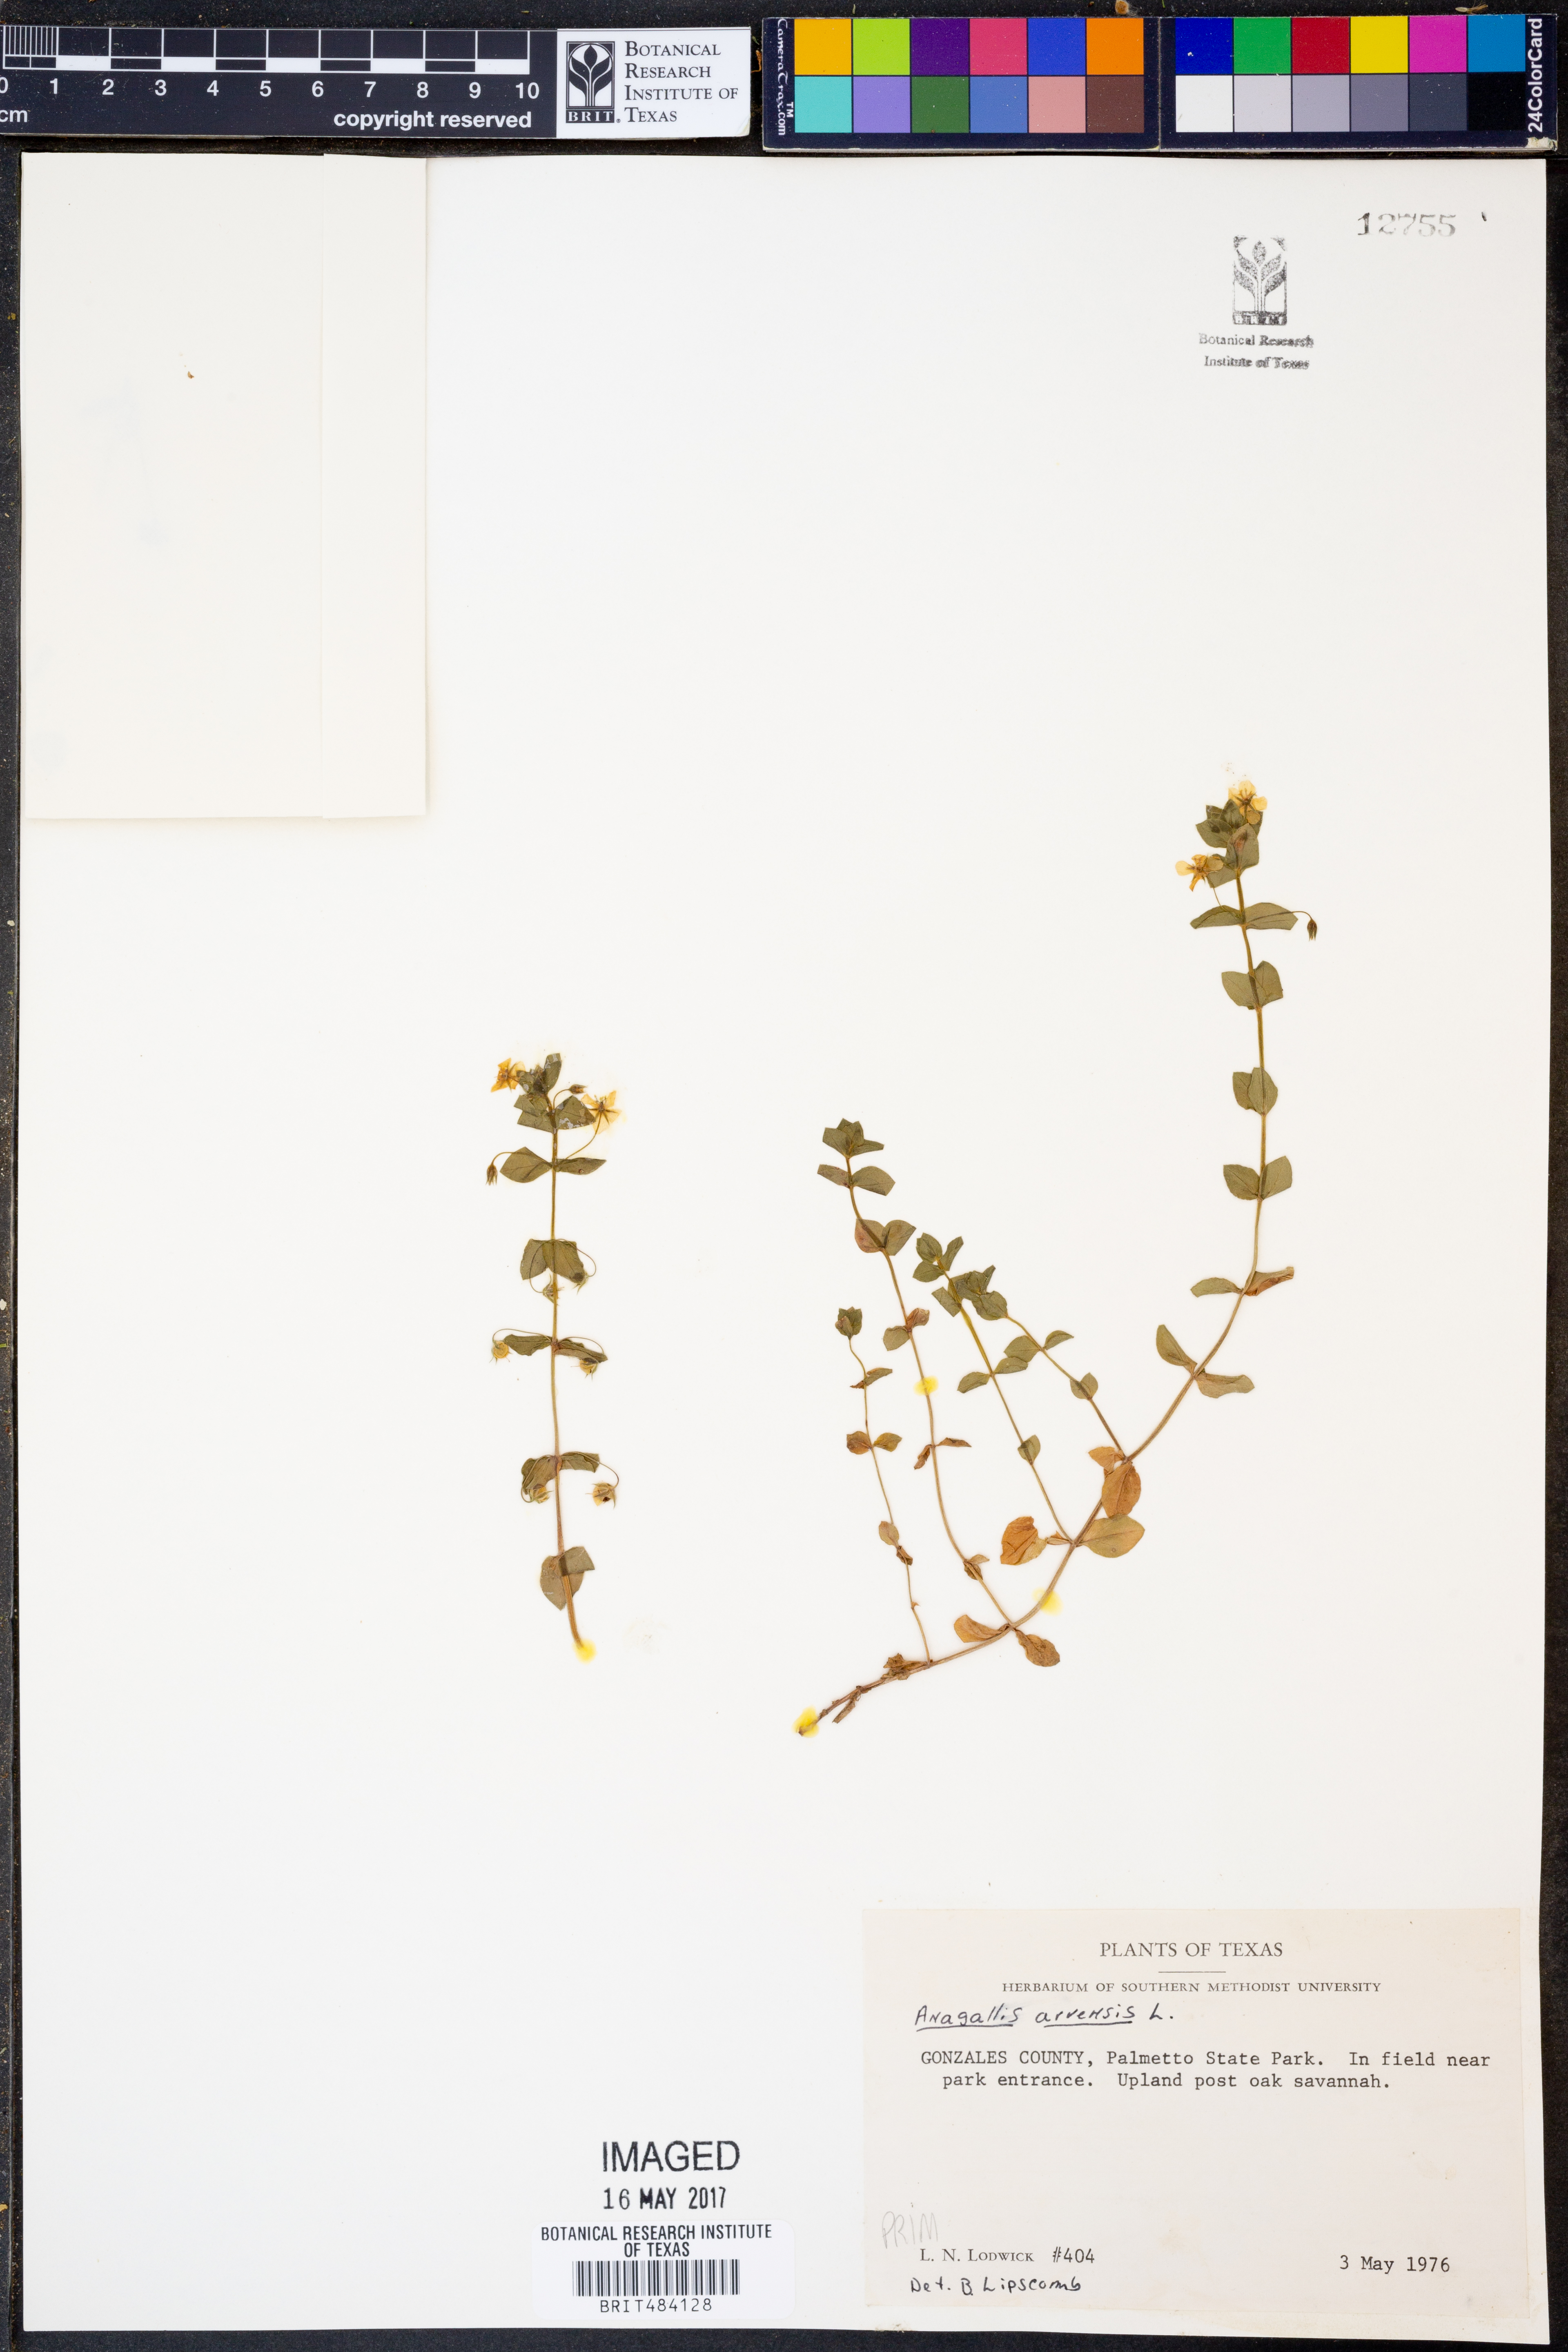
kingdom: Plantae
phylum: Tracheophyta
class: Magnoliopsida
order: Ericales
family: Primulaceae
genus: Lysimachia
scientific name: Lysimachia arvensis
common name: Scarlet pimpernel
